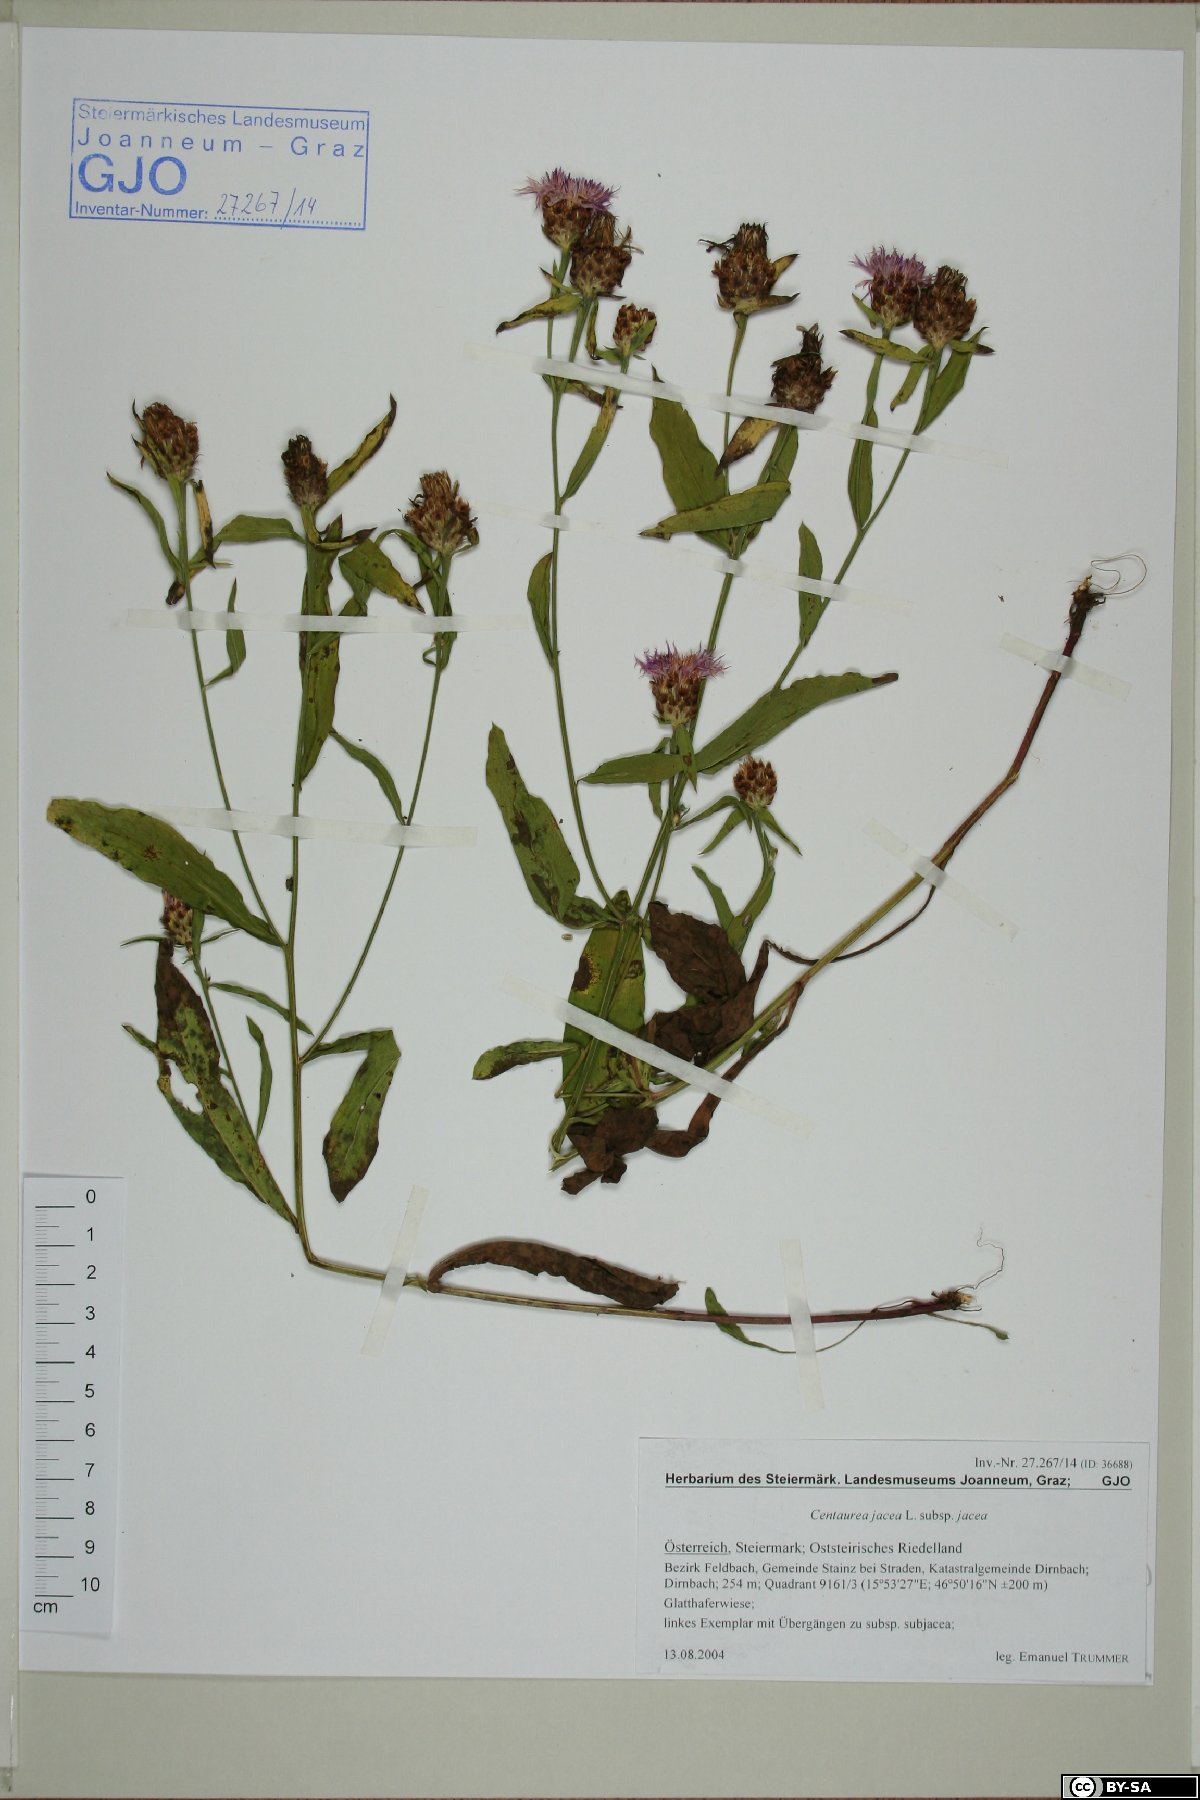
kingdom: Plantae
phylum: Tracheophyta
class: Magnoliopsida
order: Asterales
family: Asteraceae
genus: Centaurea
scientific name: Centaurea jacea
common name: Brown knapweed
